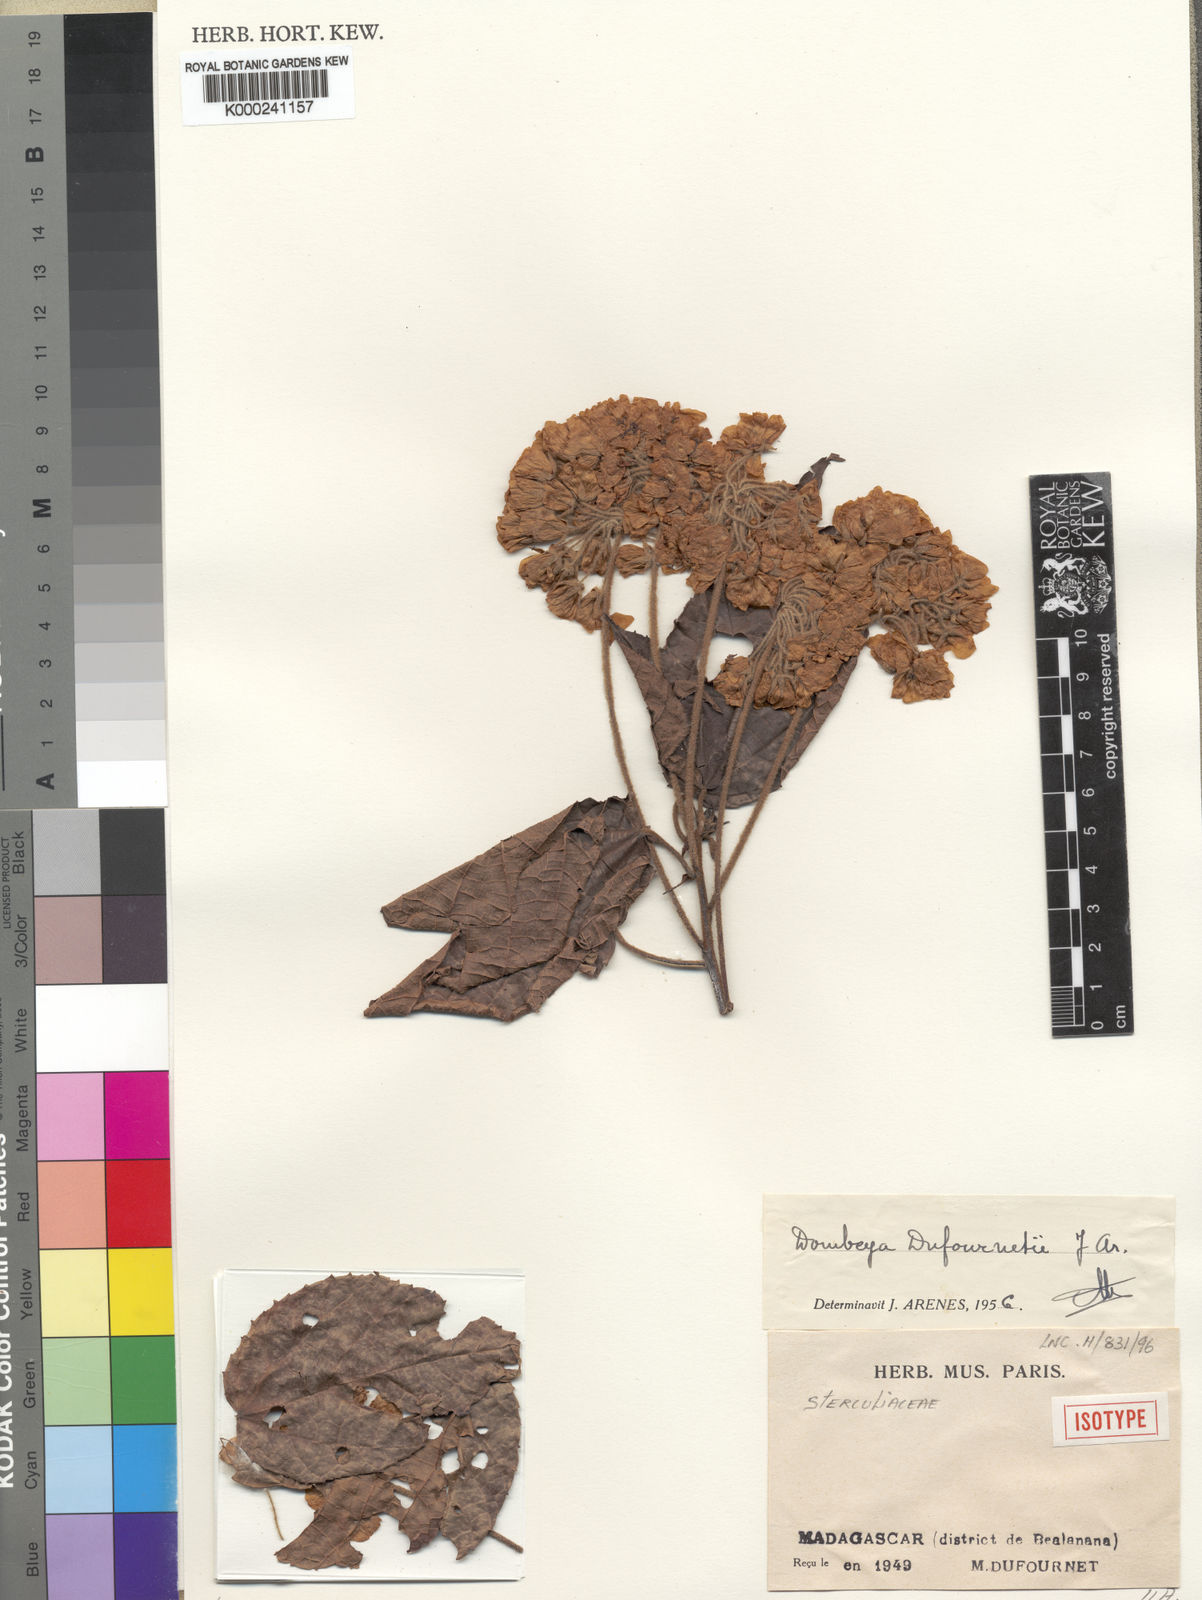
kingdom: Plantae
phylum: Tracheophyta
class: Magnoliopsida
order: Malvales
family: Malvaceae
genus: Dombeya
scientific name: Dombeya dufournetii
